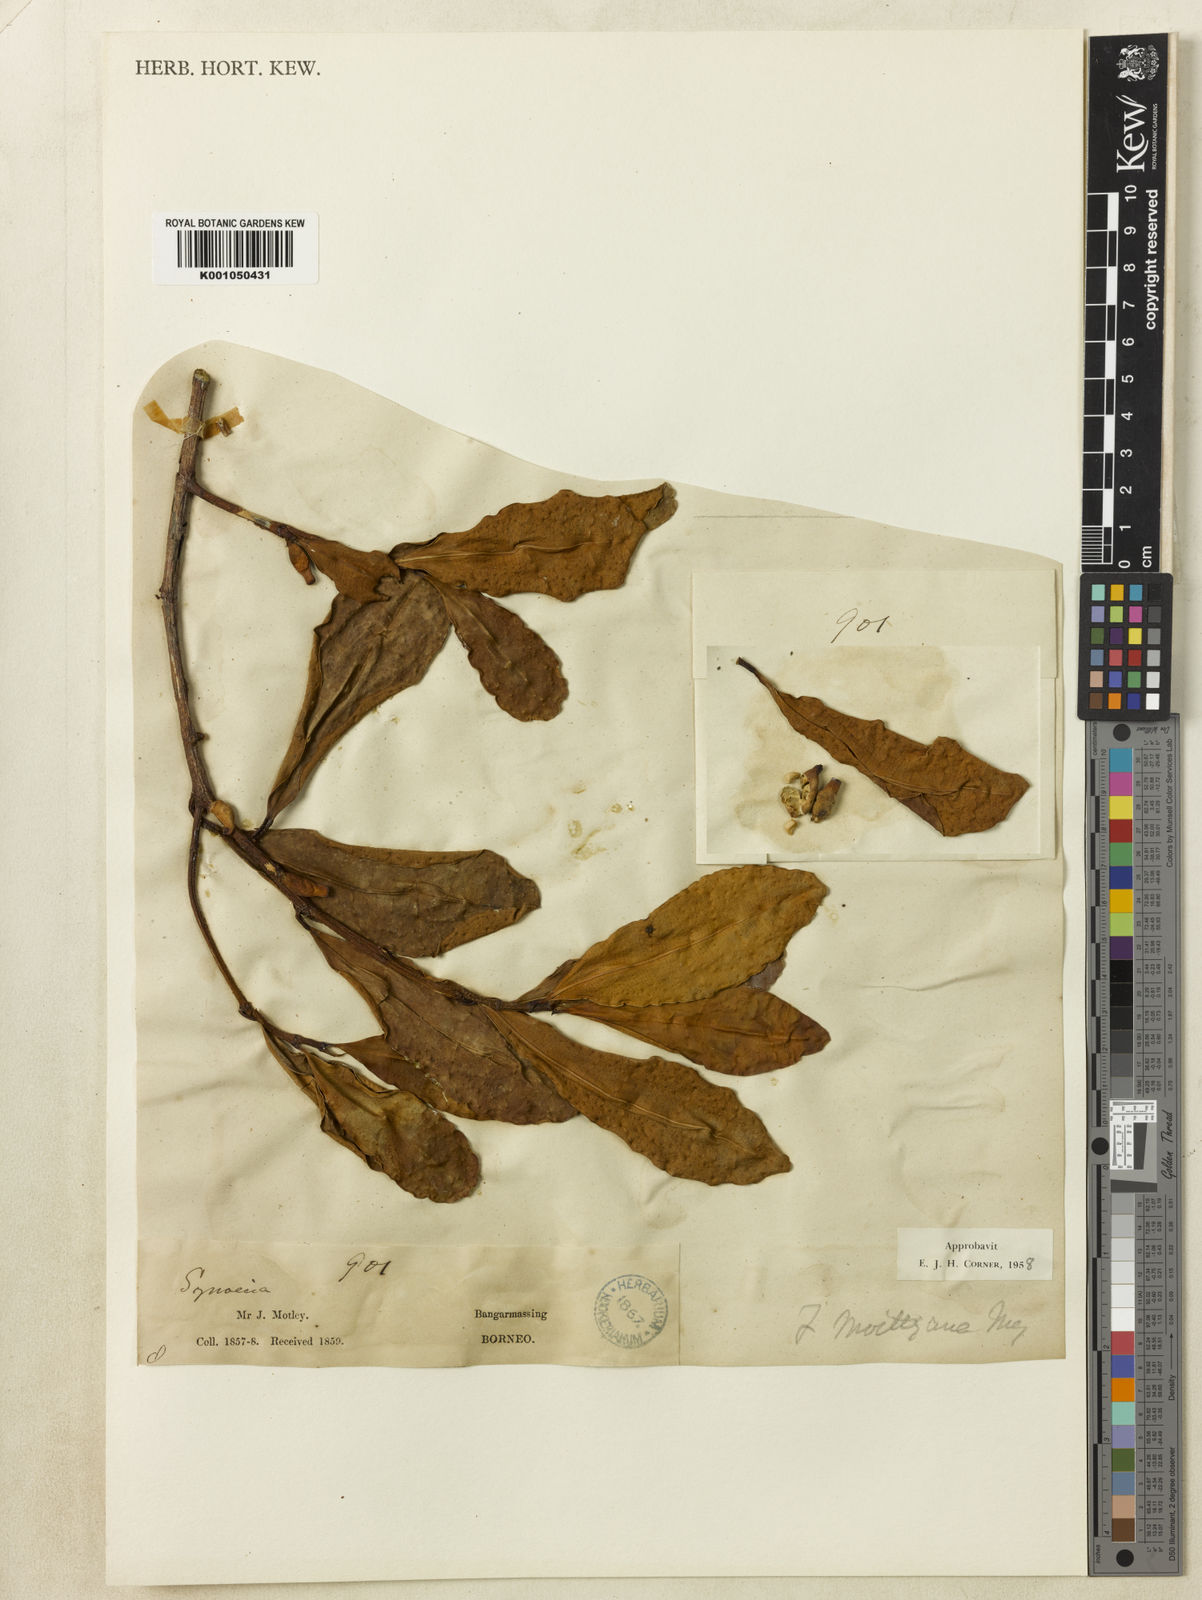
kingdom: Plantae
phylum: Tracheophyta
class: Magnoliopsida
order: Rosales
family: Moraceae
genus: Ficus
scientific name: Ficus deltoidea
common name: Mistletoe fig
